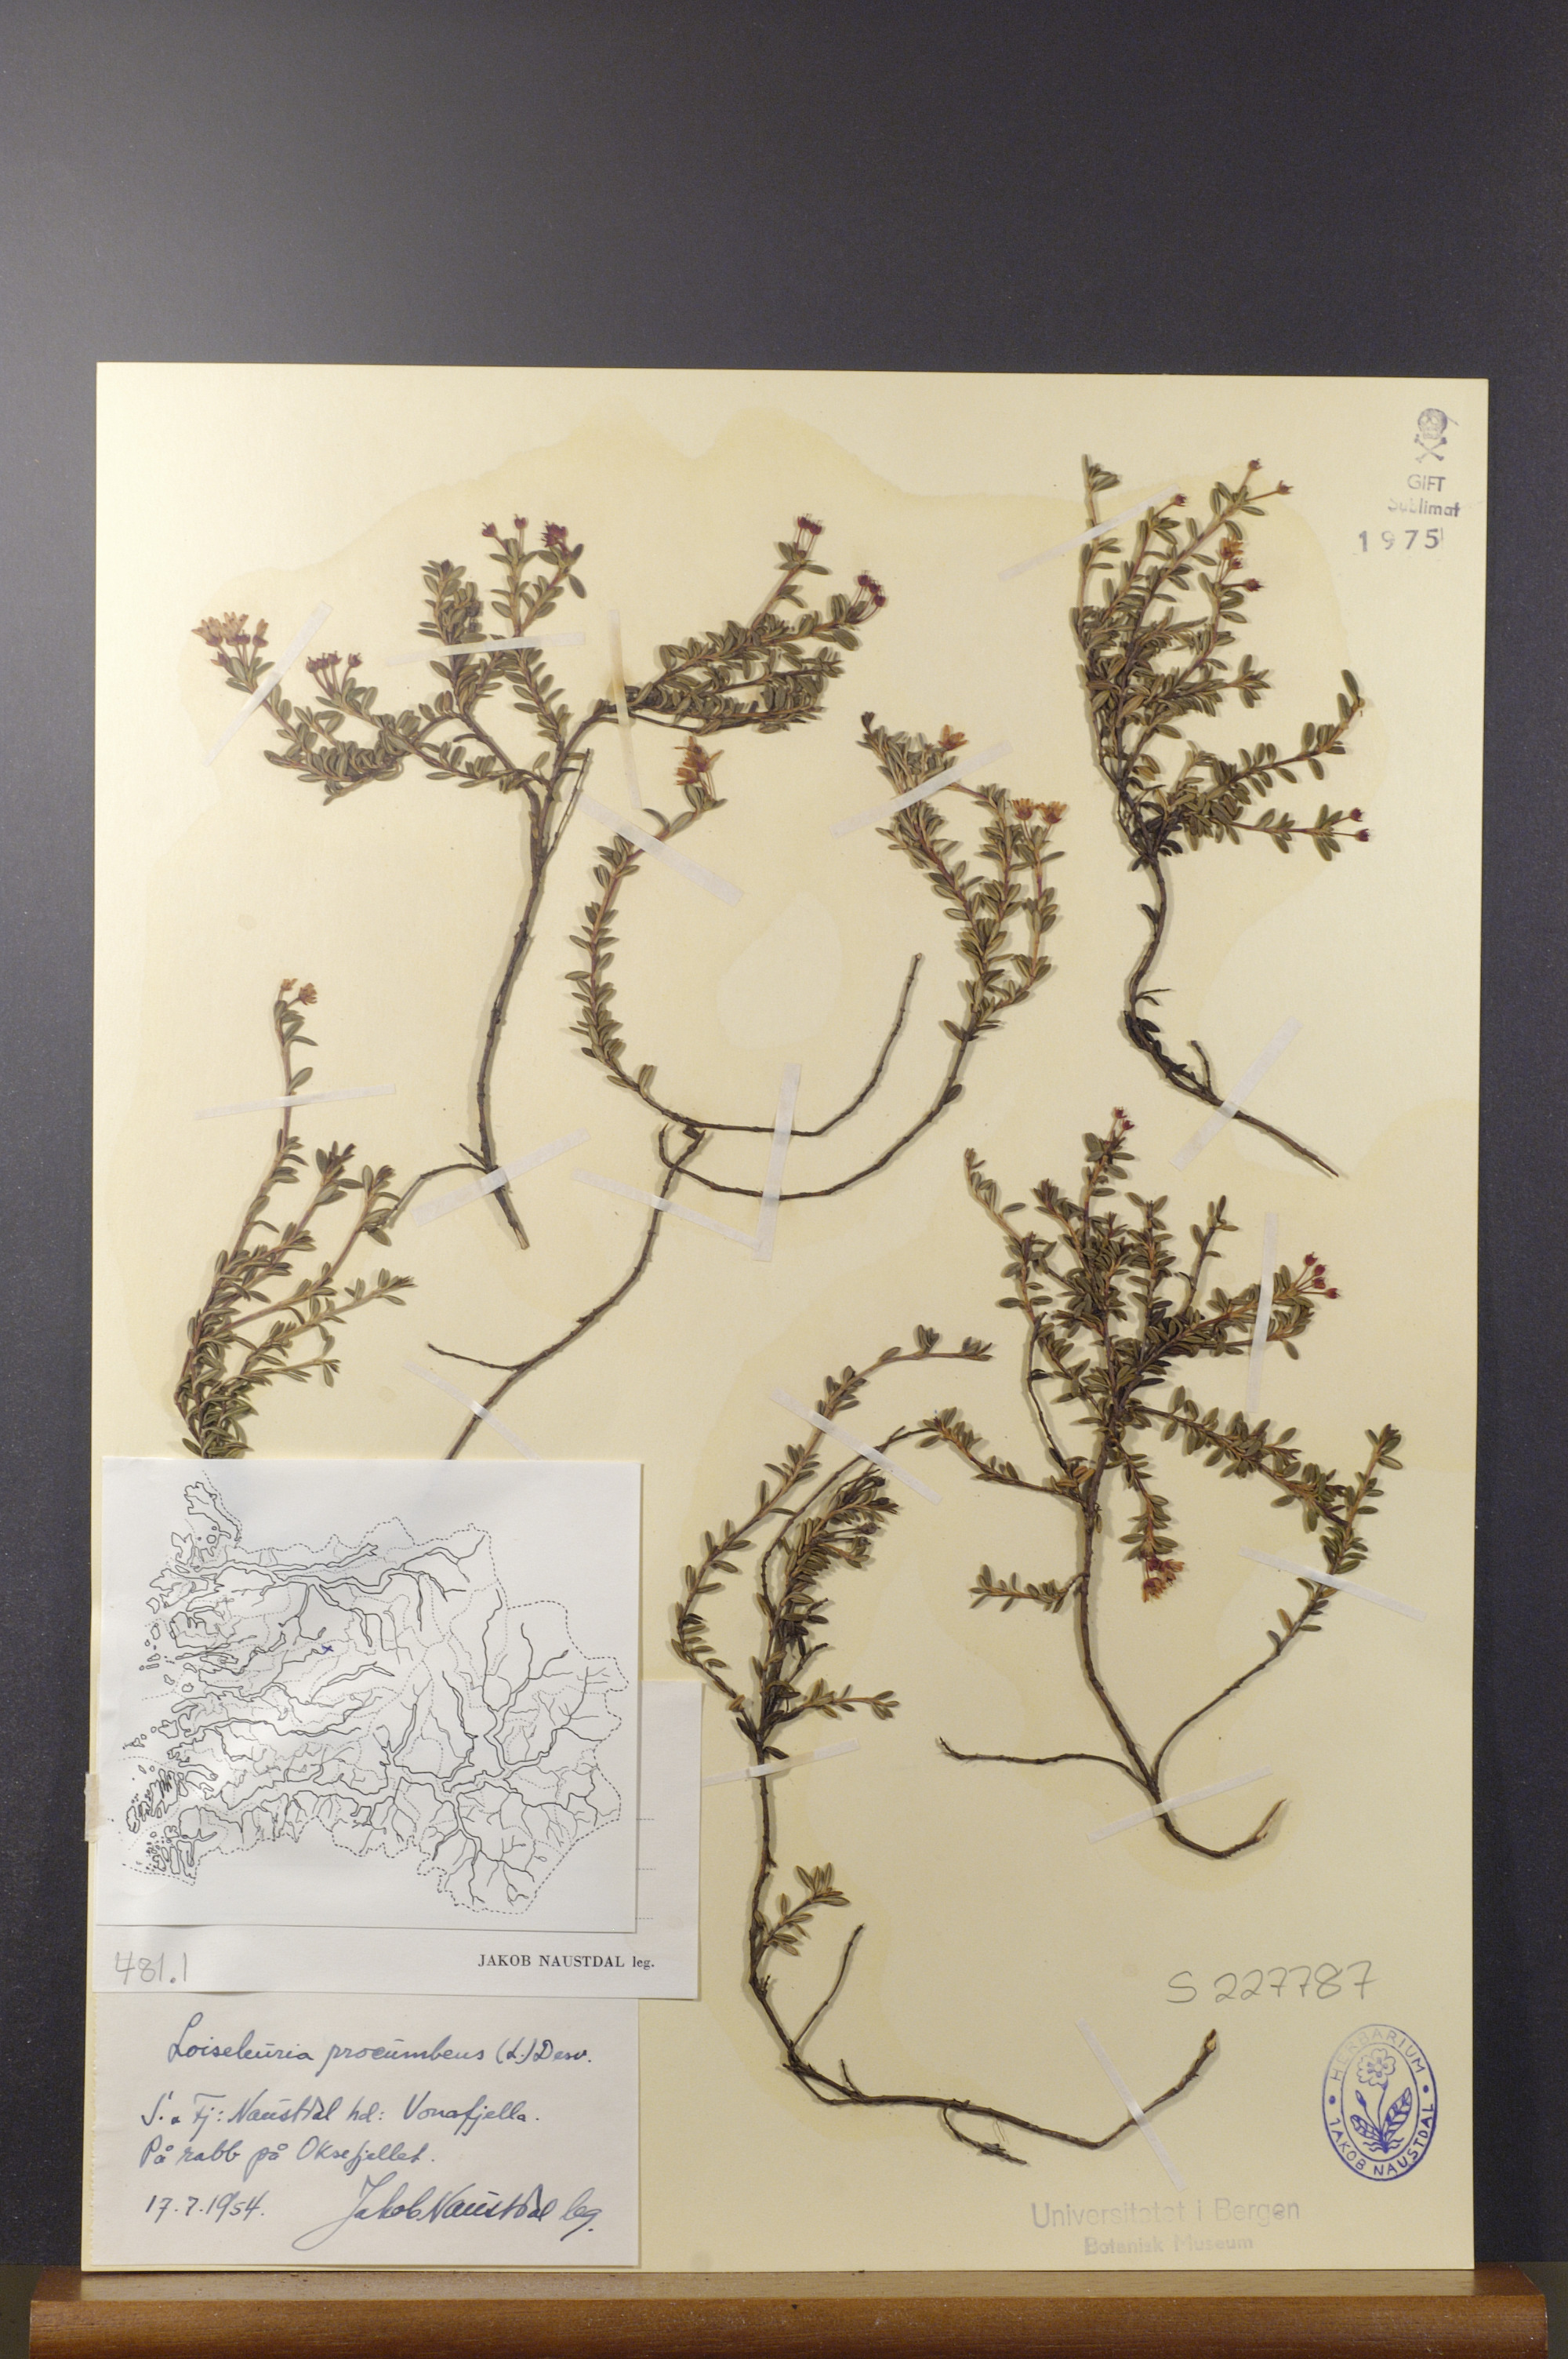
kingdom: Plantae
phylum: Tracheophyta
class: Magnoliopsida
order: Ericales
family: Ericaceae
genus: Kalmia
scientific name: Kalmia procumbens
